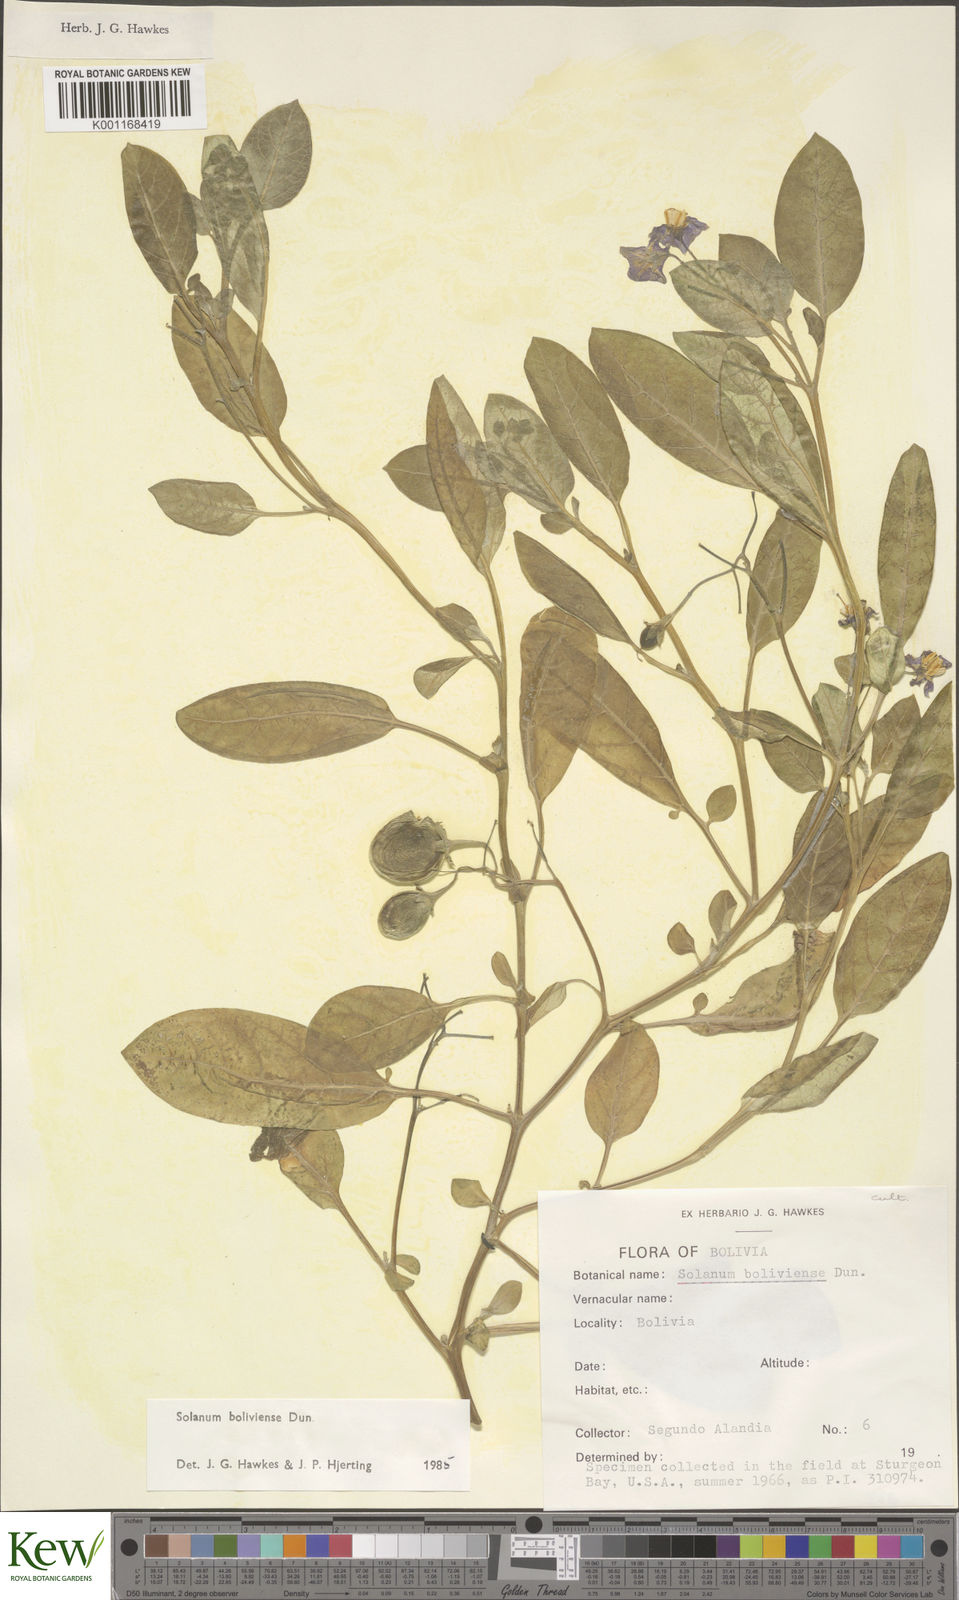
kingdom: Plantae
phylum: Tracheophyta
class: Magnoliopsida
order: Solanales
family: Solanaceae
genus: Solanum
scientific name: Solanum boliviense
